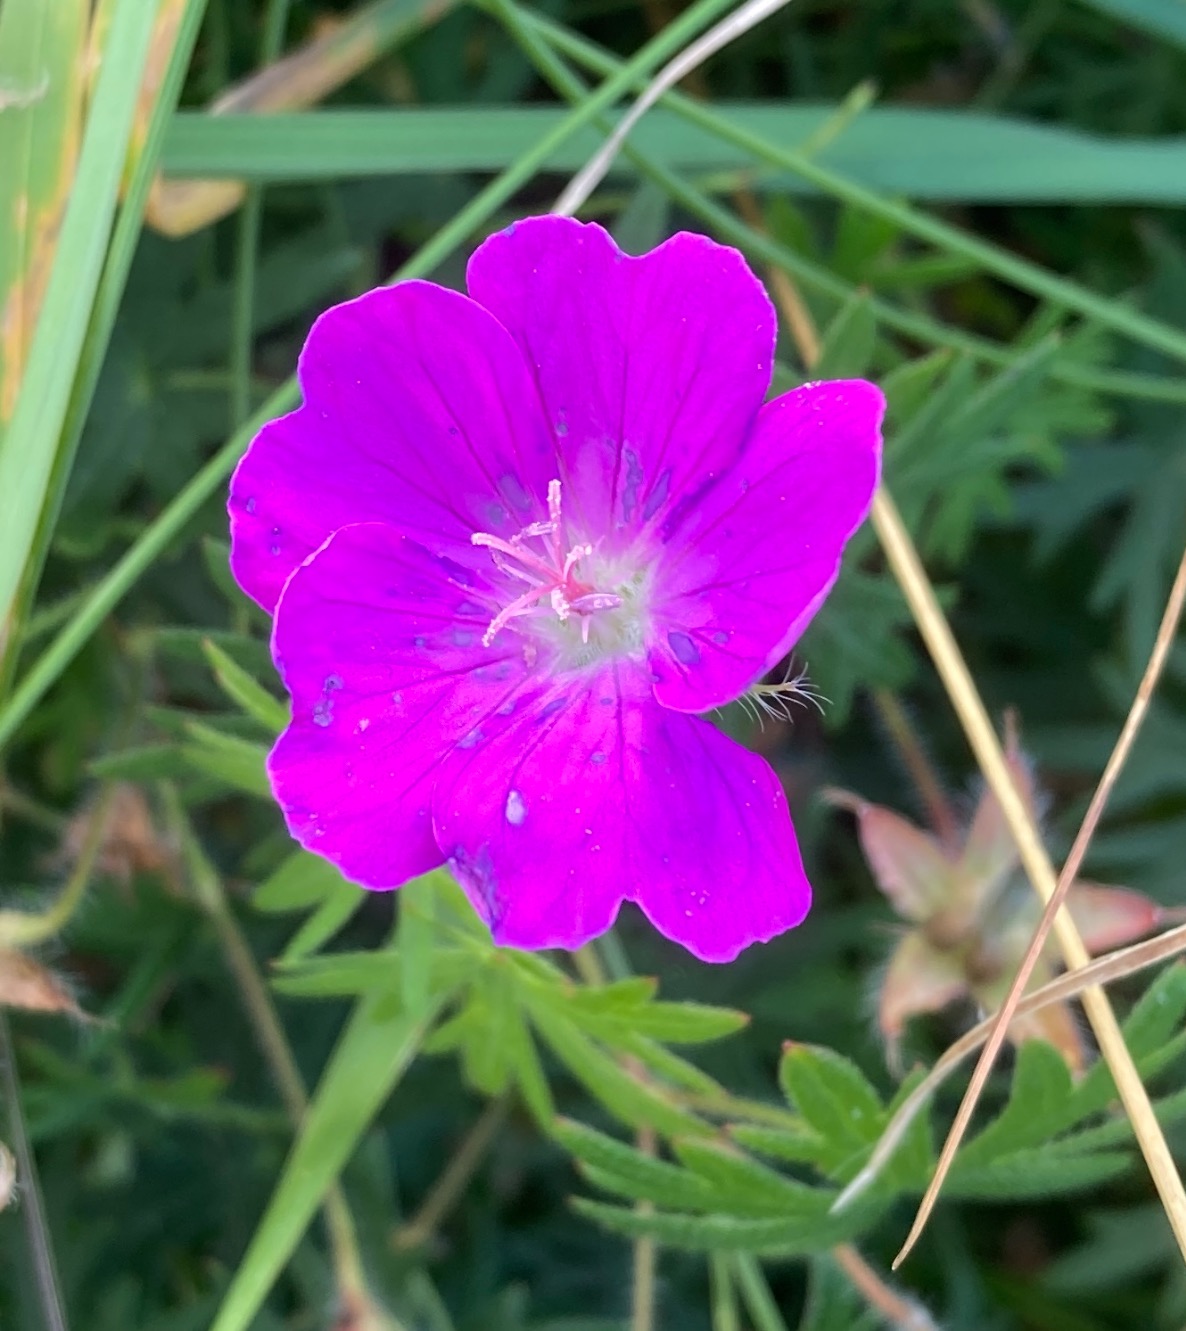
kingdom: Plantae
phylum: Tracheophyta
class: Magnoliopsida
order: Geraniales
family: Geraniaceae
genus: Geranium
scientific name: Geranium sanguineum
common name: Blodrød storkenæb
